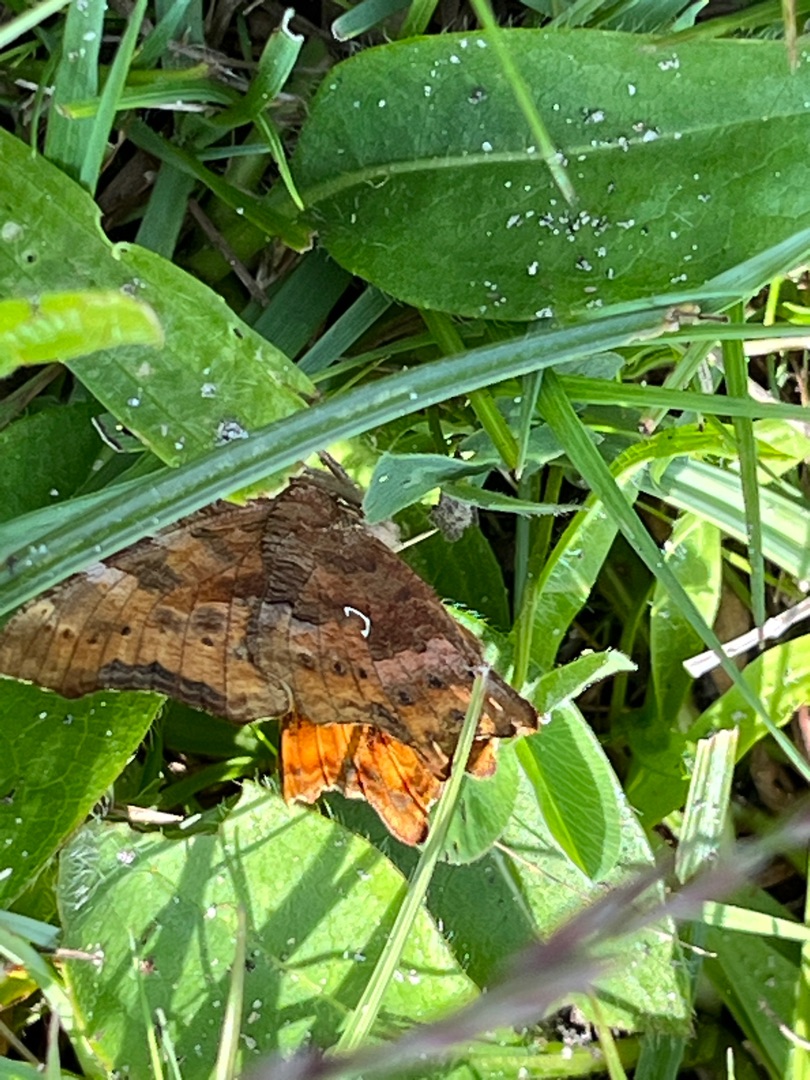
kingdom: Animalia
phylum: Arthropoda
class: Insecta
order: Lepidoptera
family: Nymphalidae
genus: Polygonia
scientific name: Polygonia c-album
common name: Det hvide C
